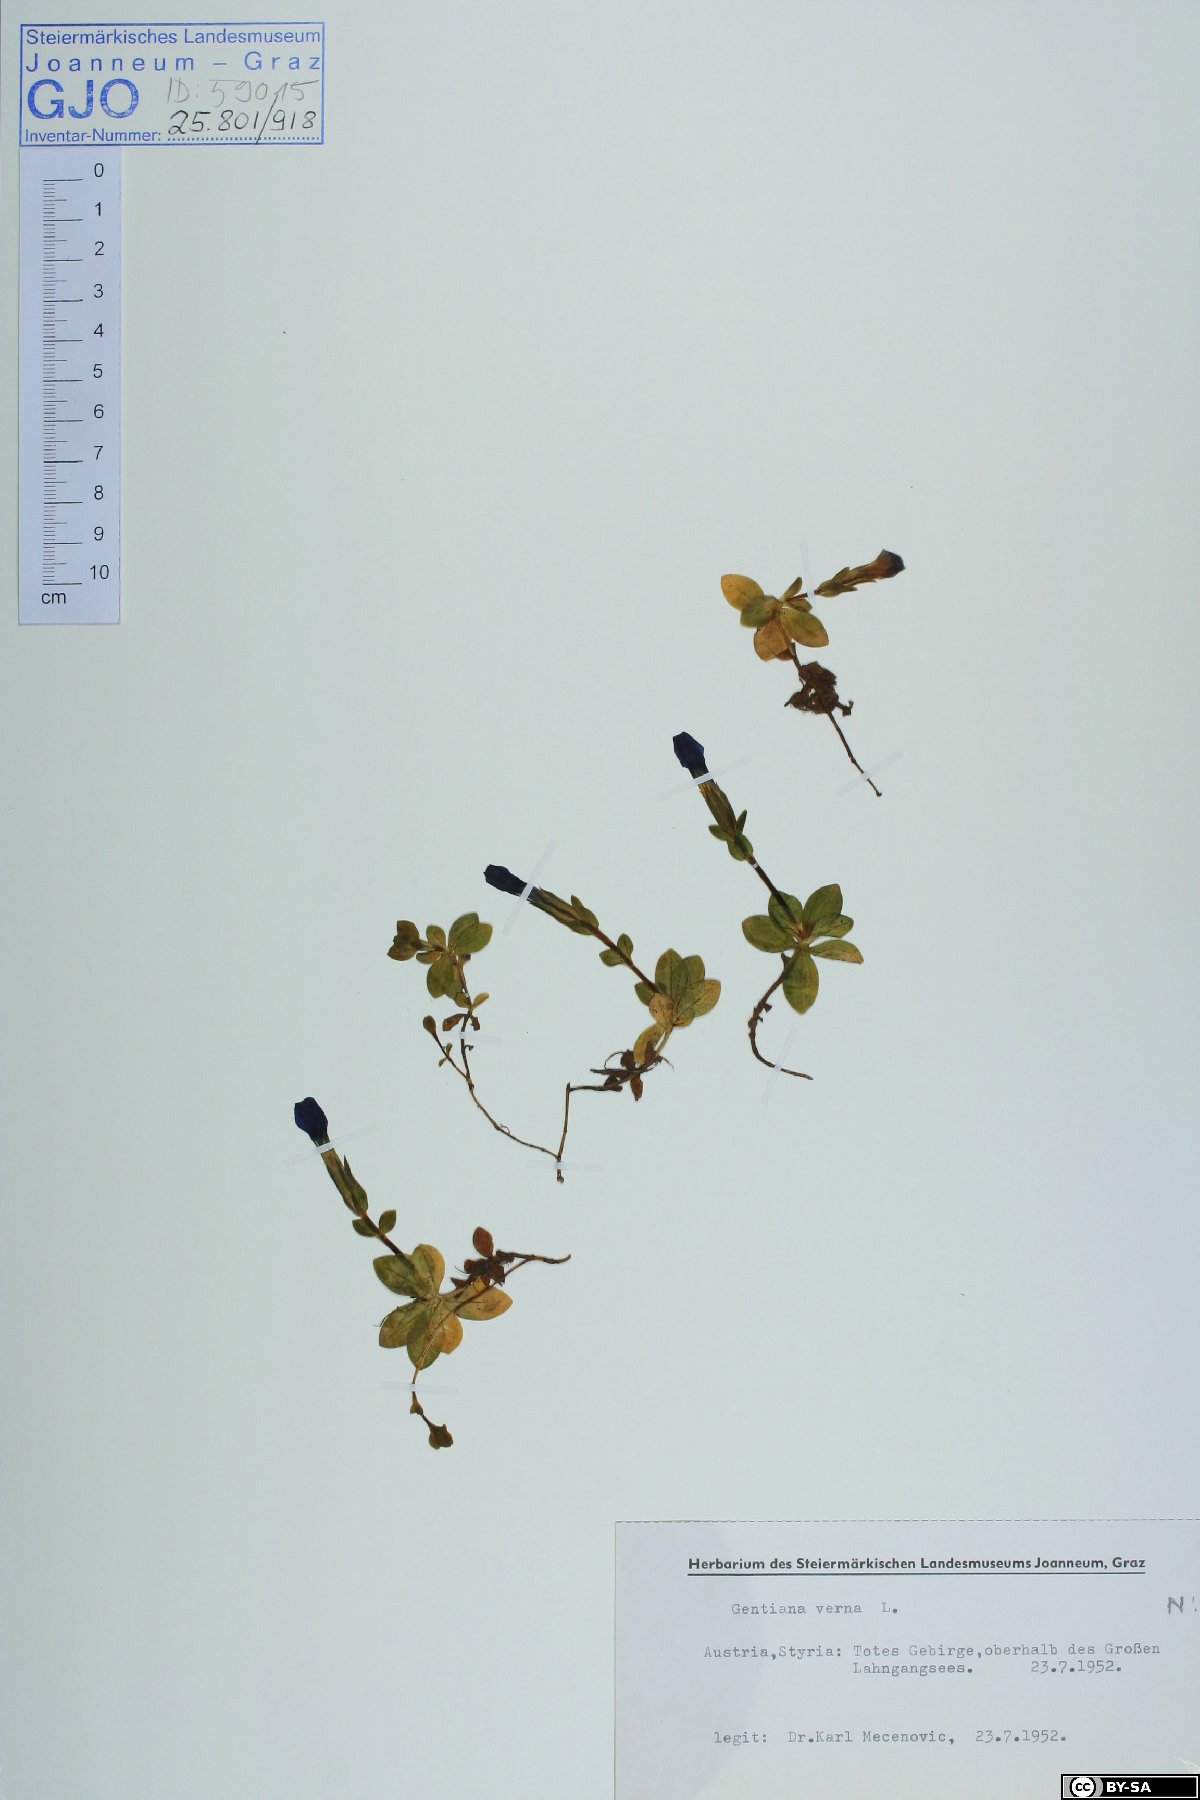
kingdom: Plantae
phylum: Tracheophyta
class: Magnoliopsida
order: Gentianales
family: Gentianaceae
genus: Gentiana
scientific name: Gentiana verna
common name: Spring gentian
